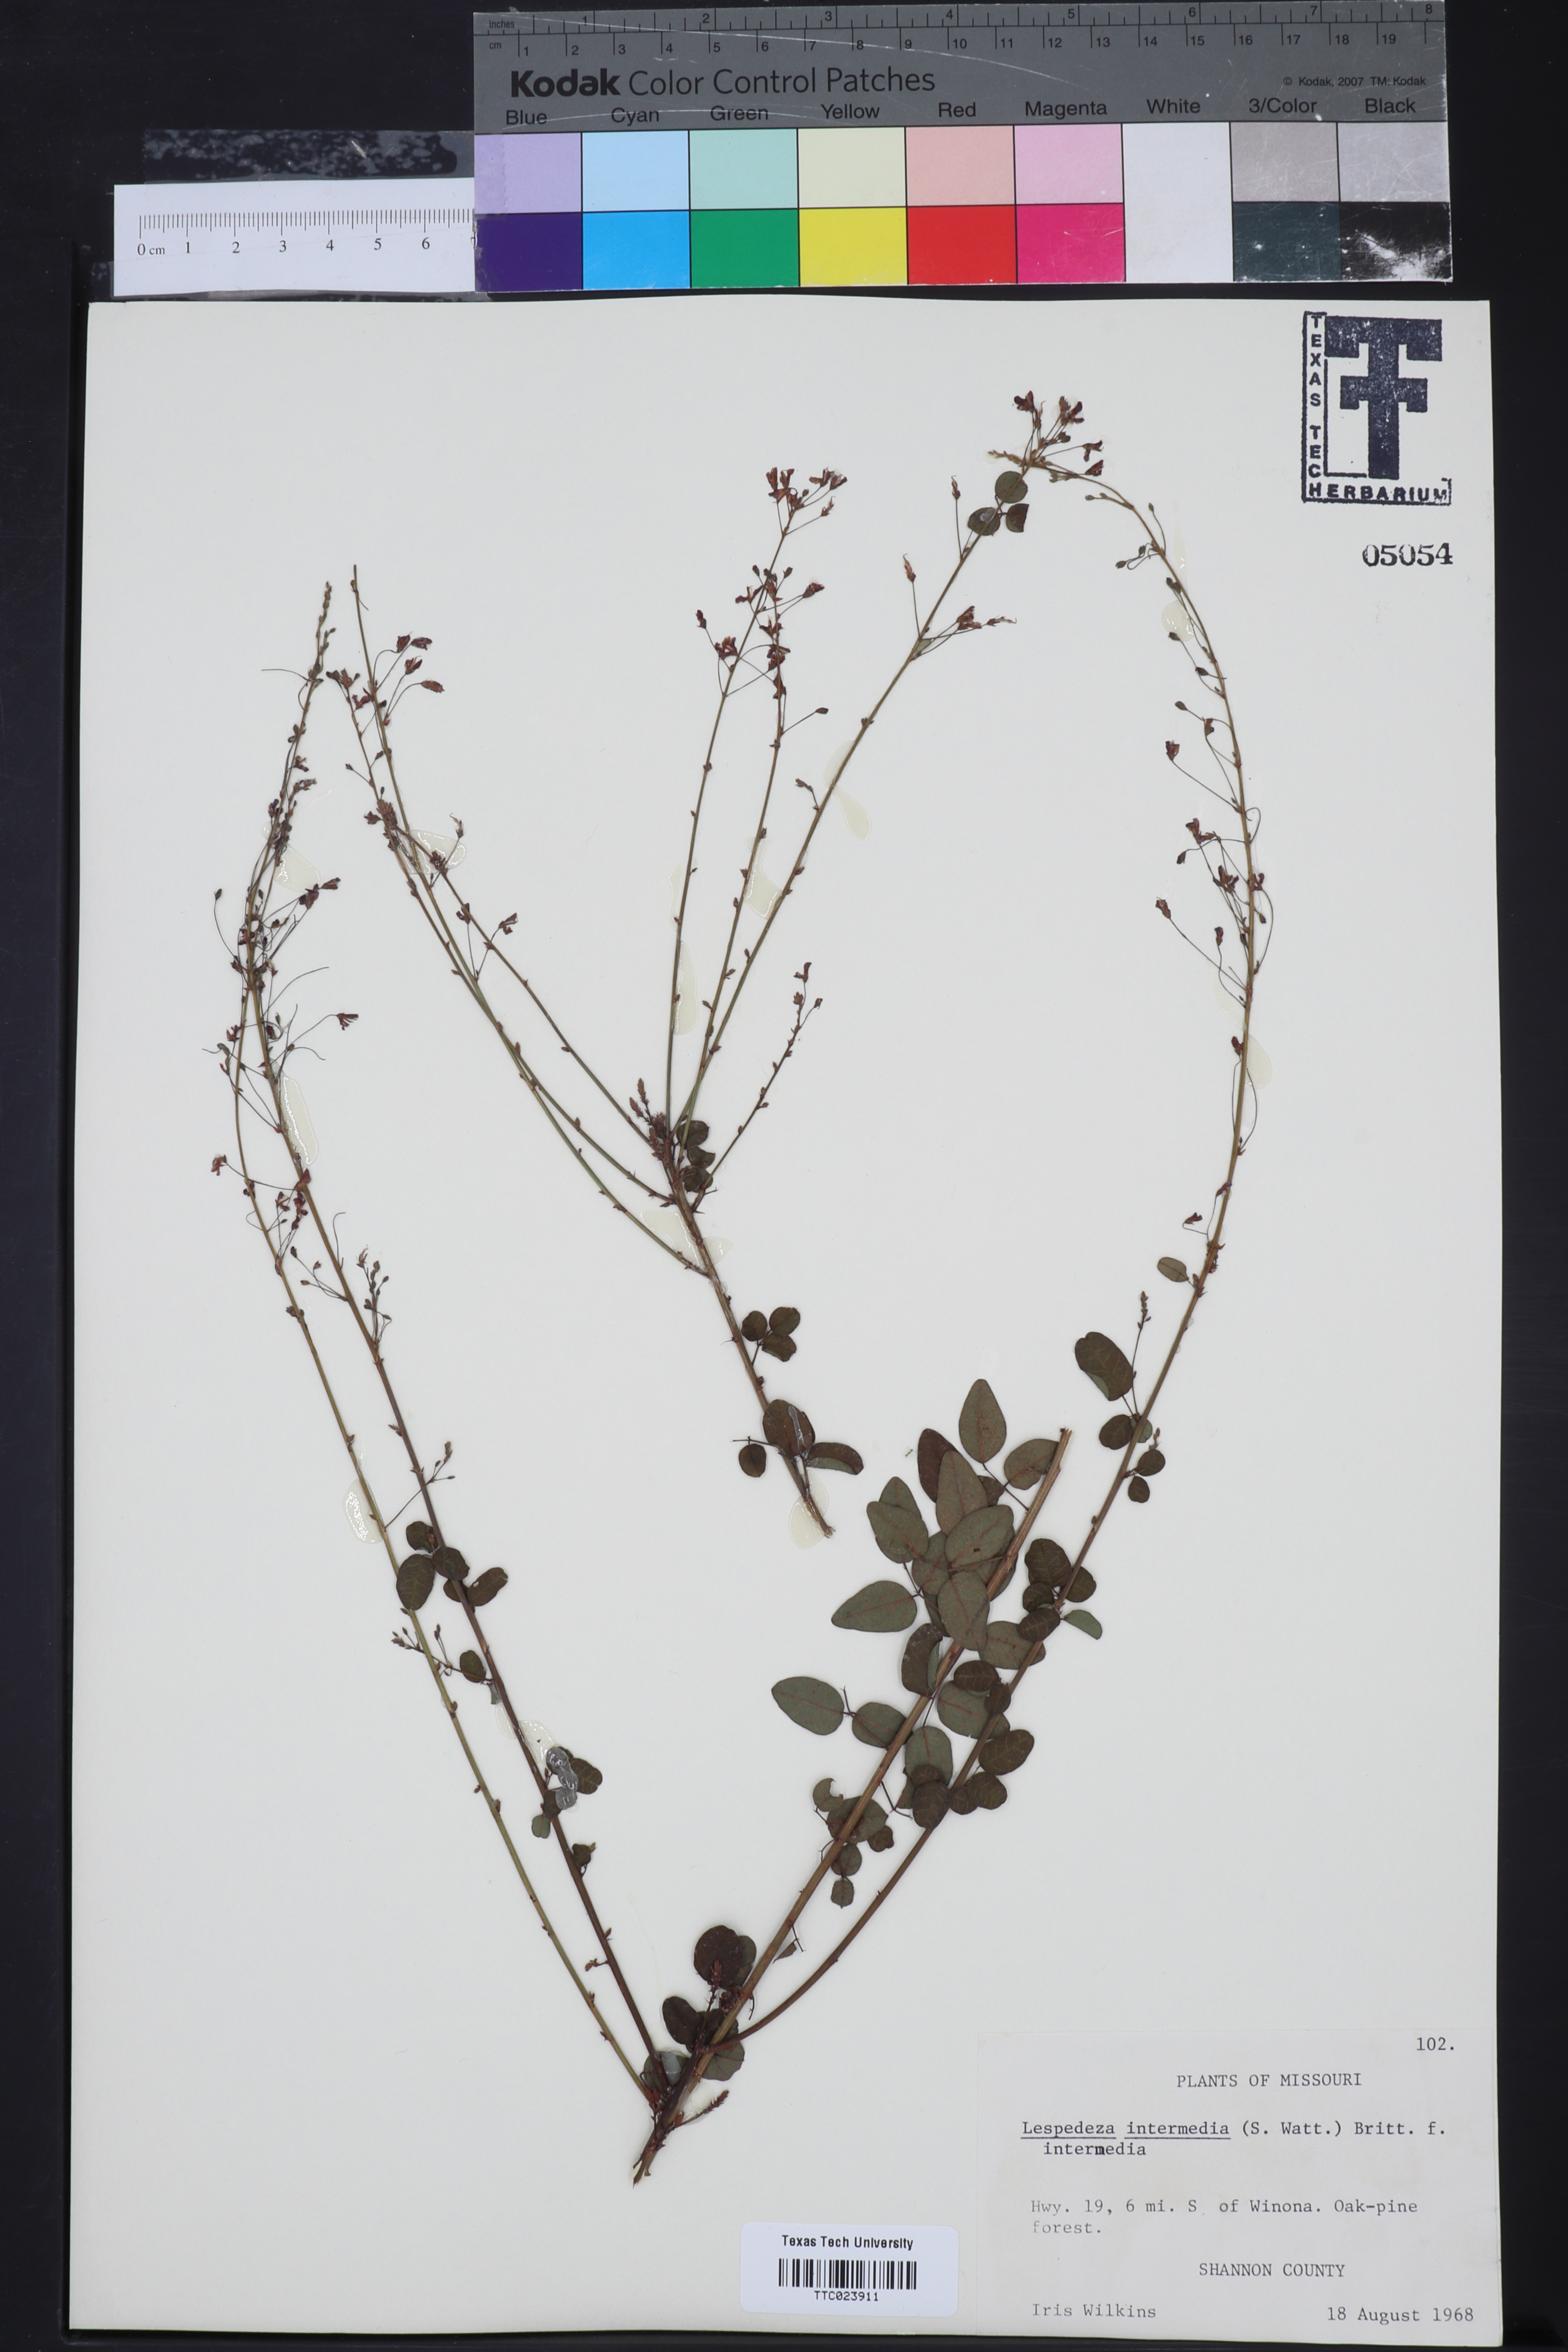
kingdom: Plantae
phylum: Tracheophyta
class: Magnoliopsida
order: Fabales
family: Fabaceae
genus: Lespedeza
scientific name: Lespedeza
